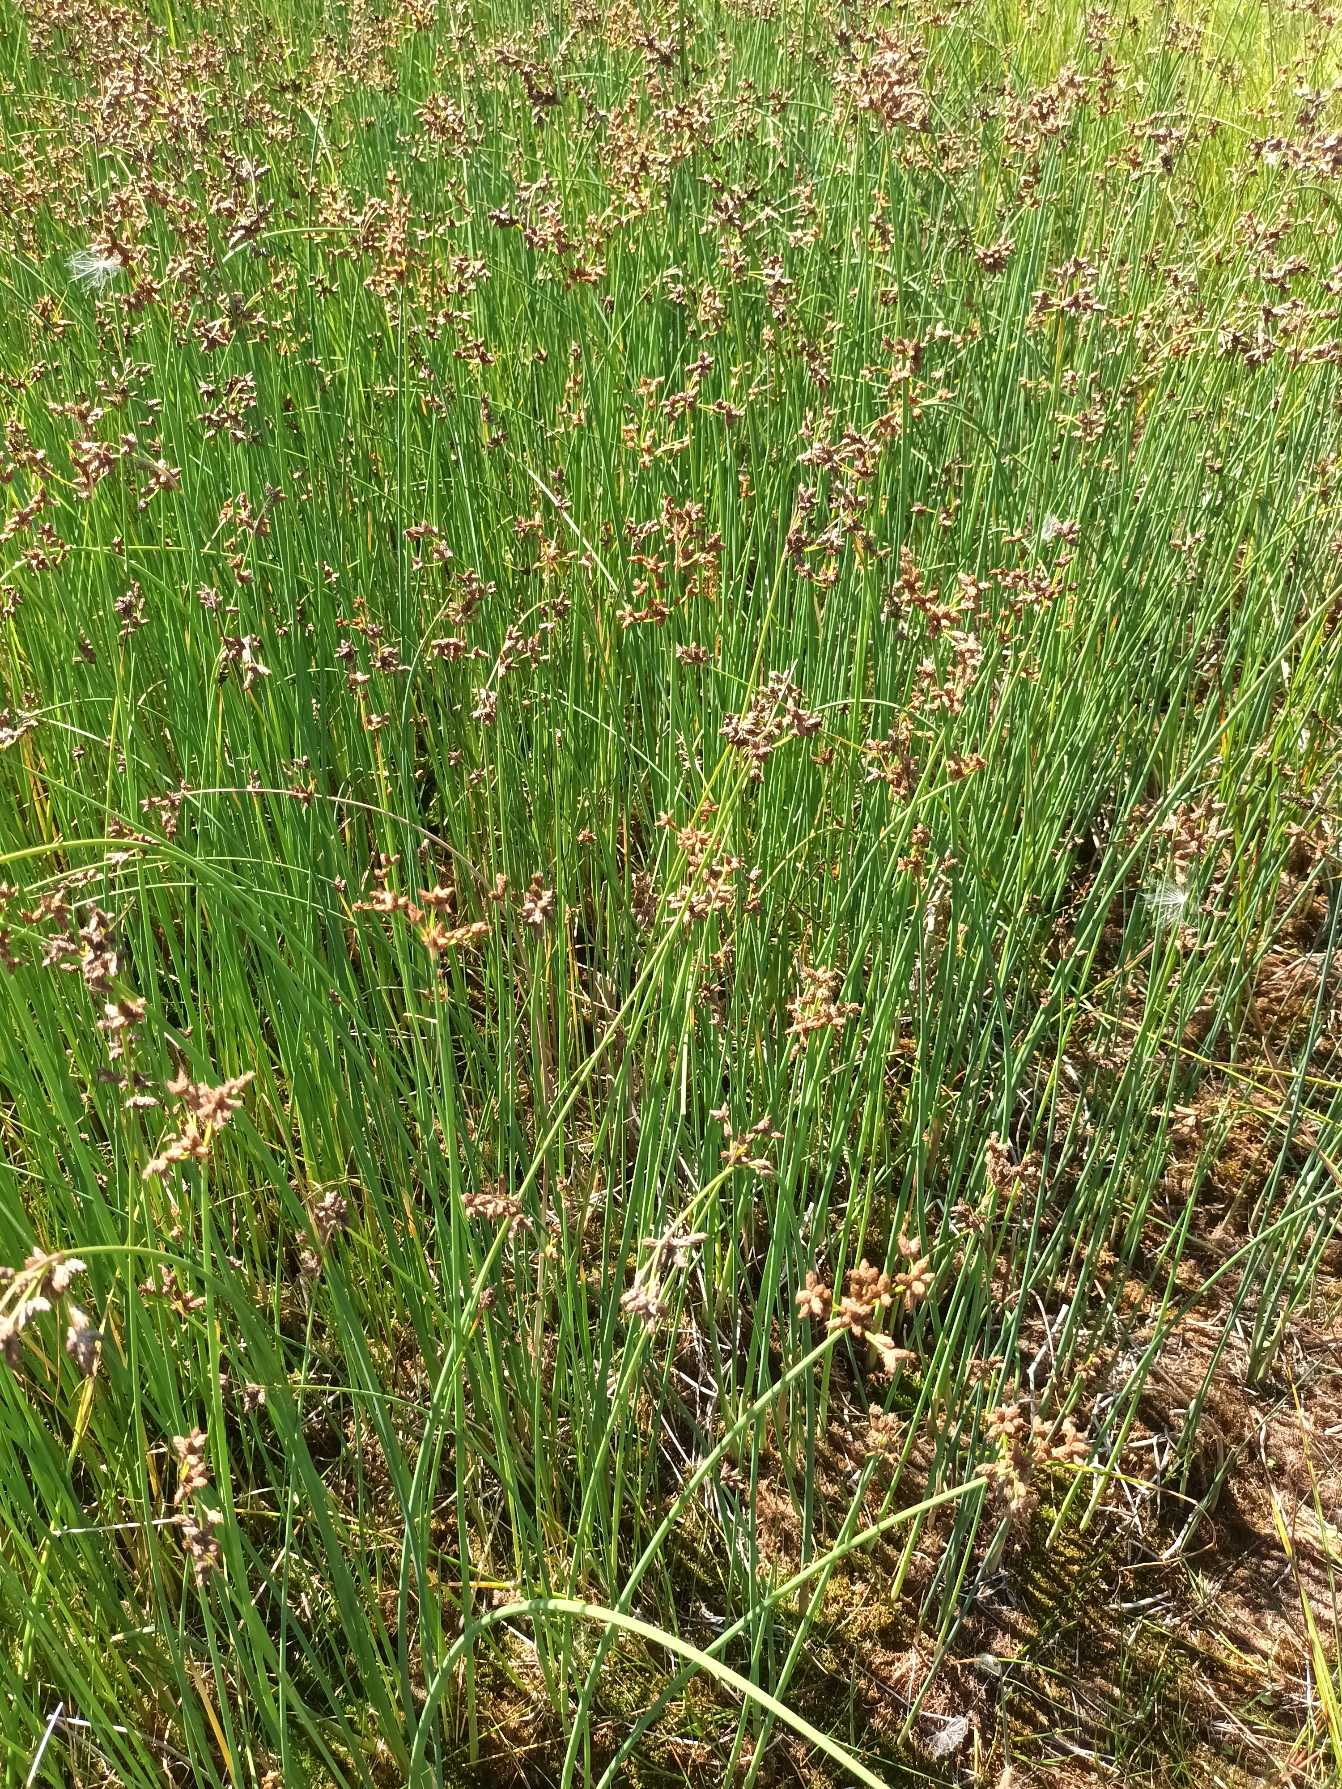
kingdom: Plantae
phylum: Tracheophyta
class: Liliopsida
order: Poales
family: Cyperaceae
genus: Schoenoplectus
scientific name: Schoenoplectus tabernaemontani
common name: Blågrøn kogleaks
